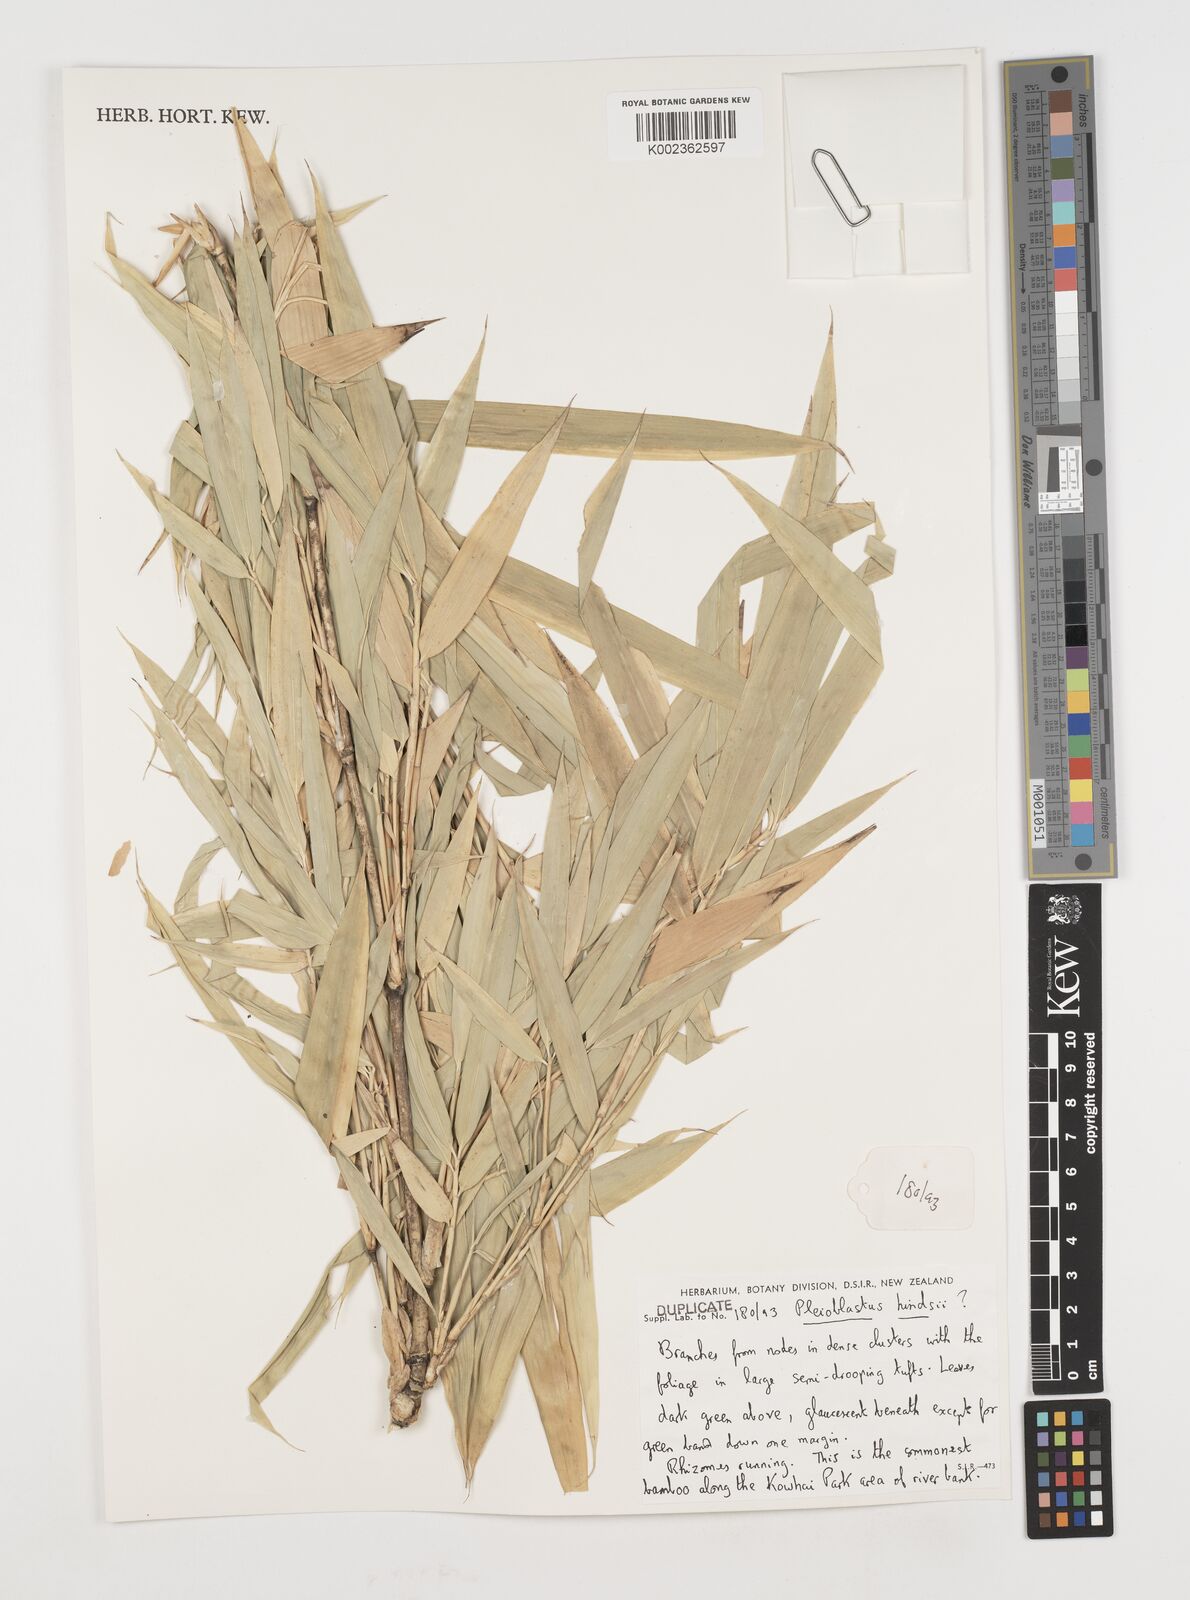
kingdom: Plantae
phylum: Tracheophyta
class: Liliopsida
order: Poales
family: Poaceae
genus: Pseudosasa
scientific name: Pseudosasa hindsii
